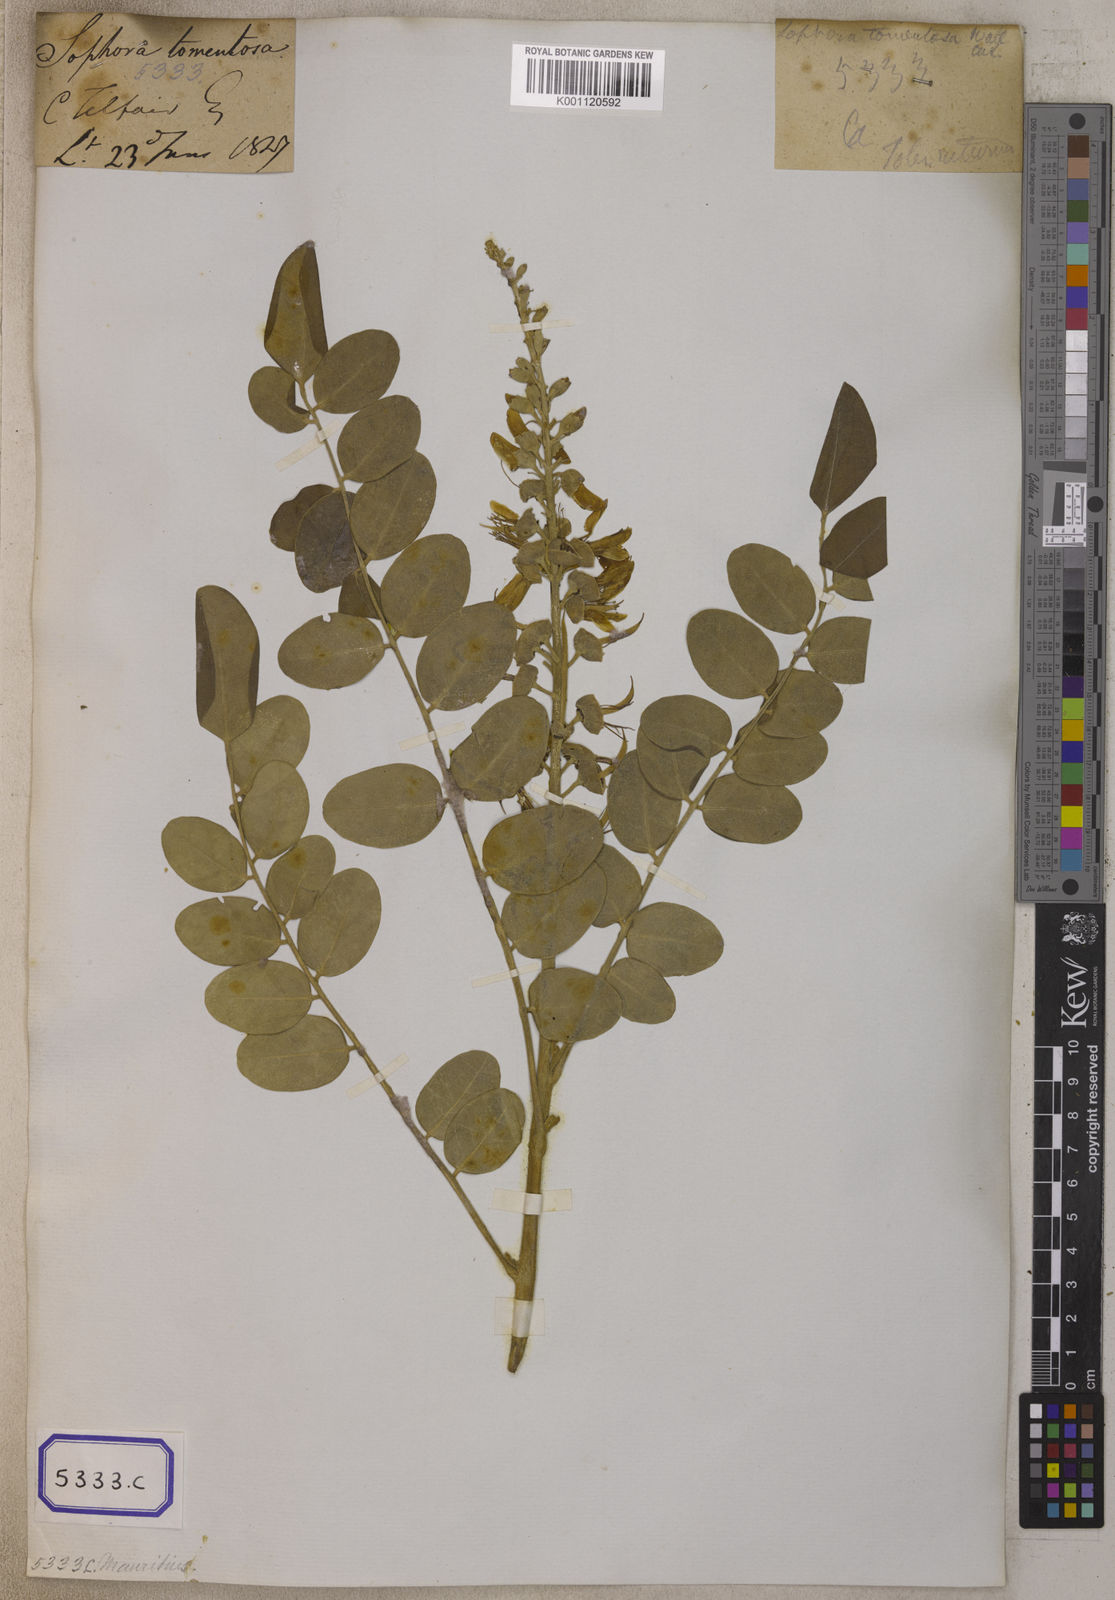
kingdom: Plantae
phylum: Tracheophyta
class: Magnoliopsida
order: Fabales
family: Fabaceae
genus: Sophora
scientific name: Sophora tomentosa
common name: Yellow necklacepod
